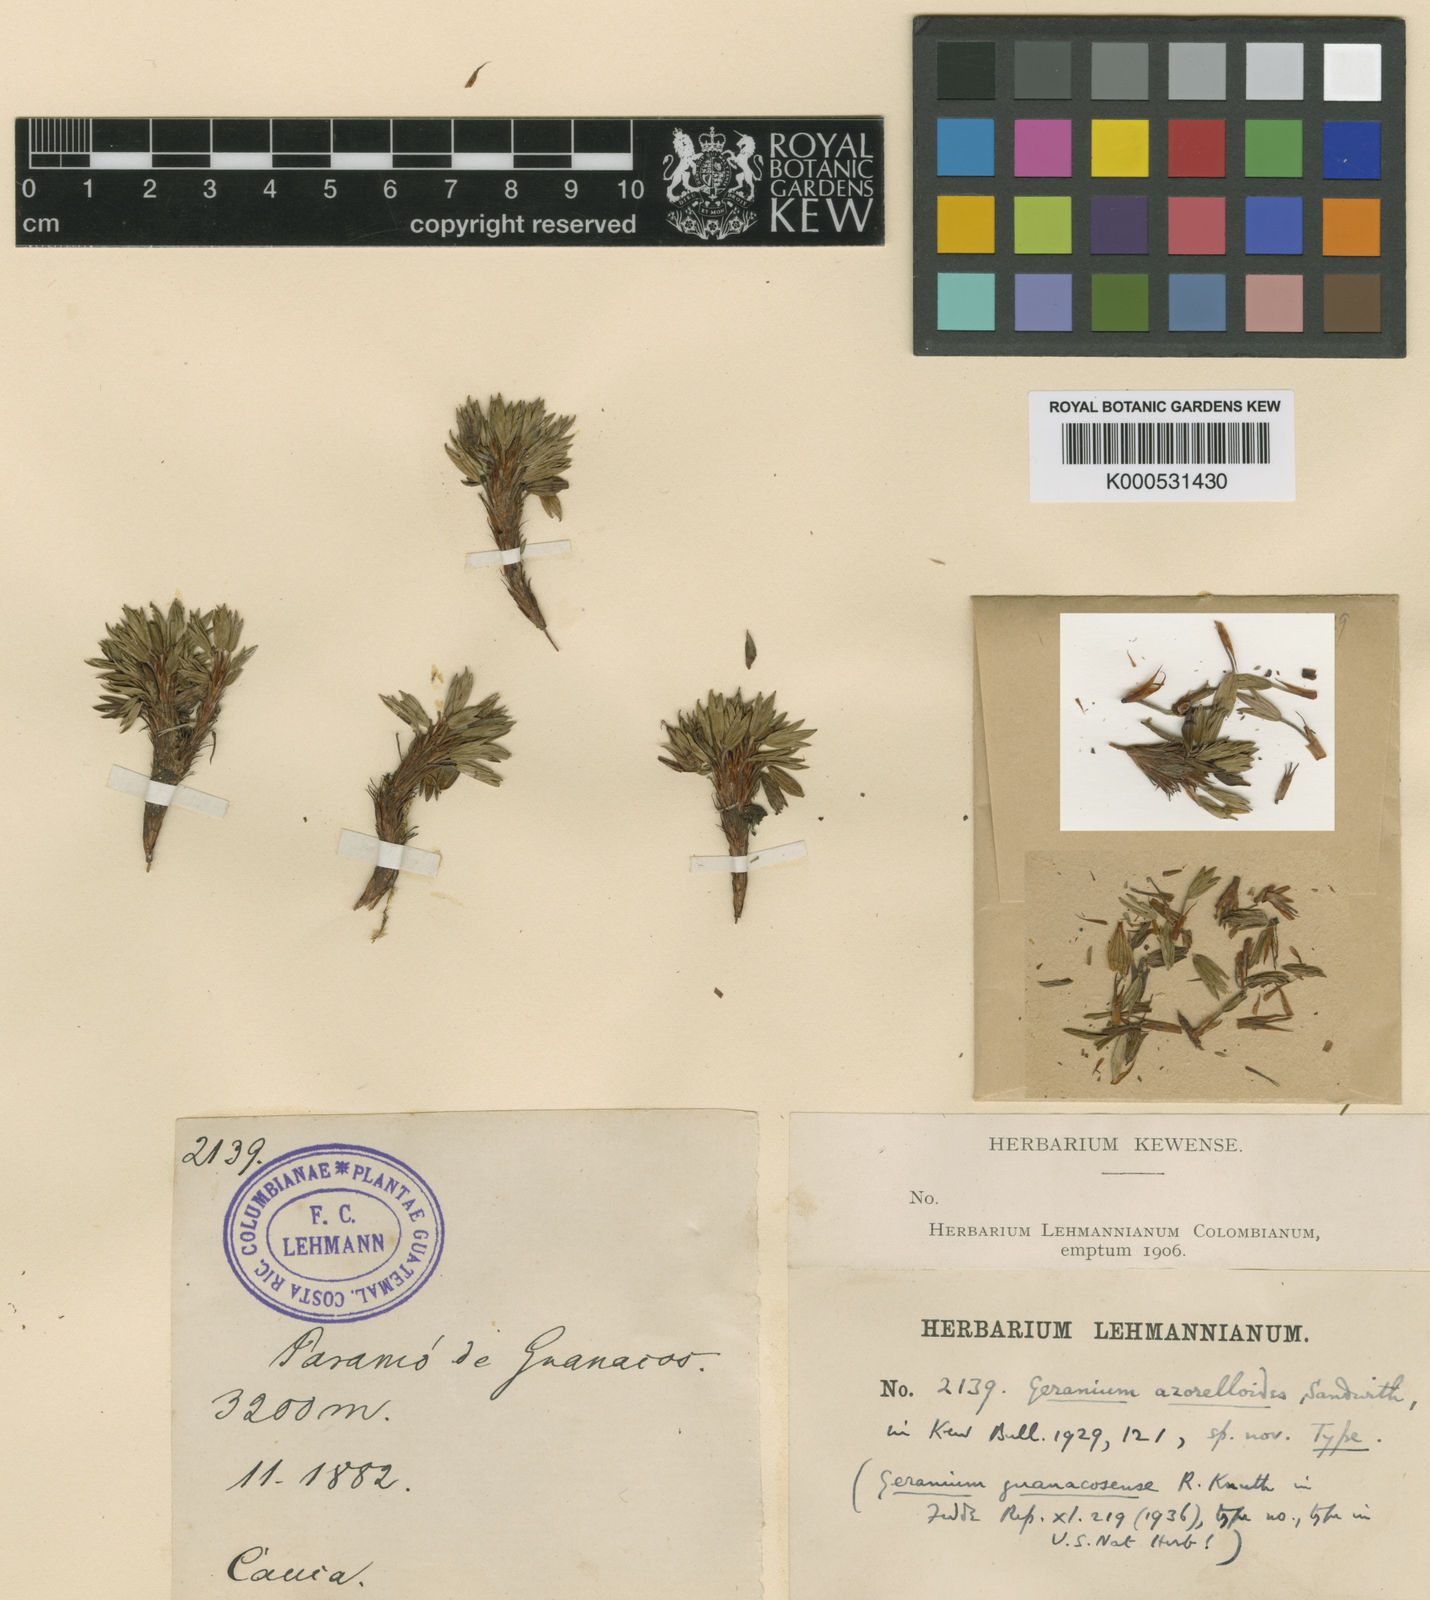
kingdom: Plantae
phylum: Tracheophyta
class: Magnoliopsida
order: Geraniales
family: Geraniaceae
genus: Geranium
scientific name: Geranium azorelloides
